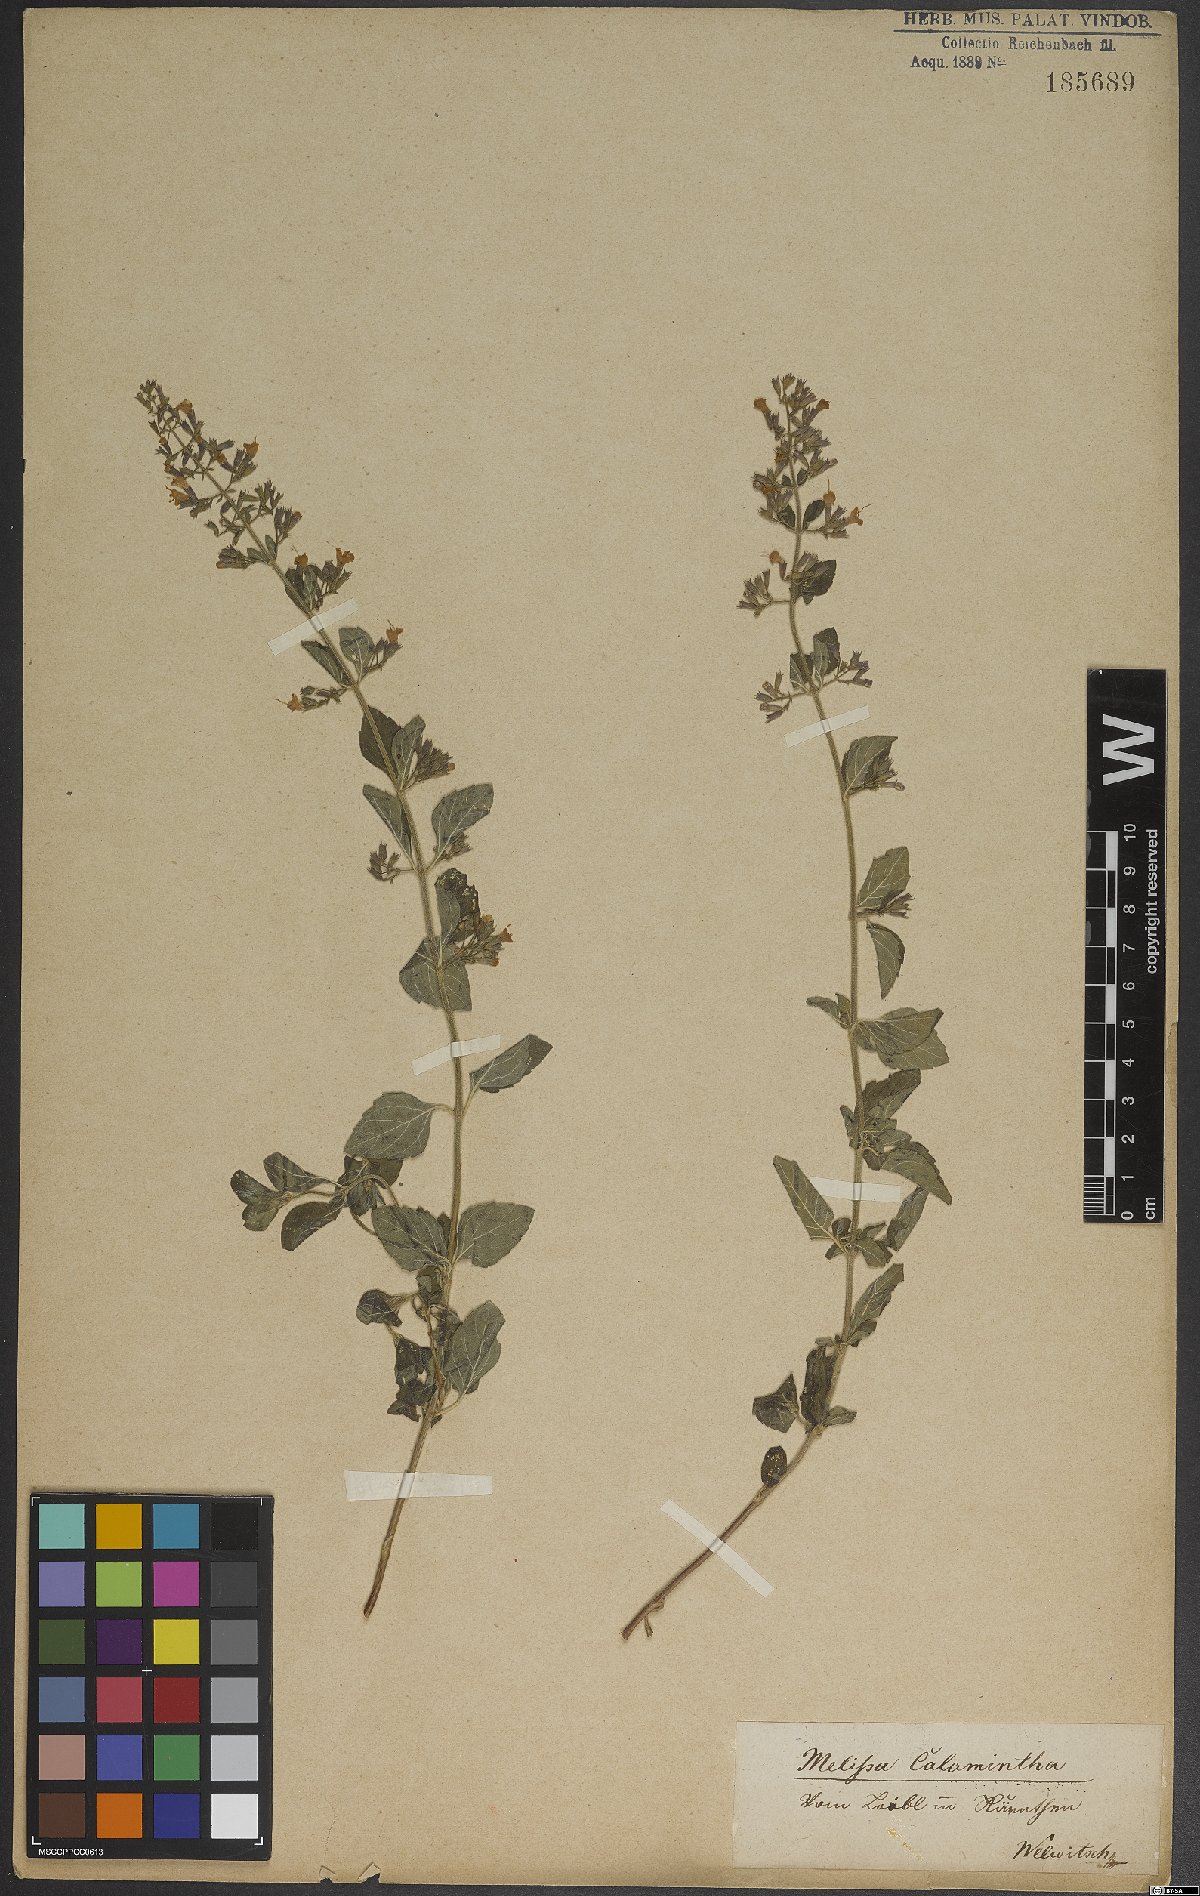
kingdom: Plantae
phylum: Tracheophyta
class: Magnoliopsida
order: Lamiales
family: Lamiaceae
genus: Clinopodium
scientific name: Clinopodium nepeta
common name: Lesser calamint
